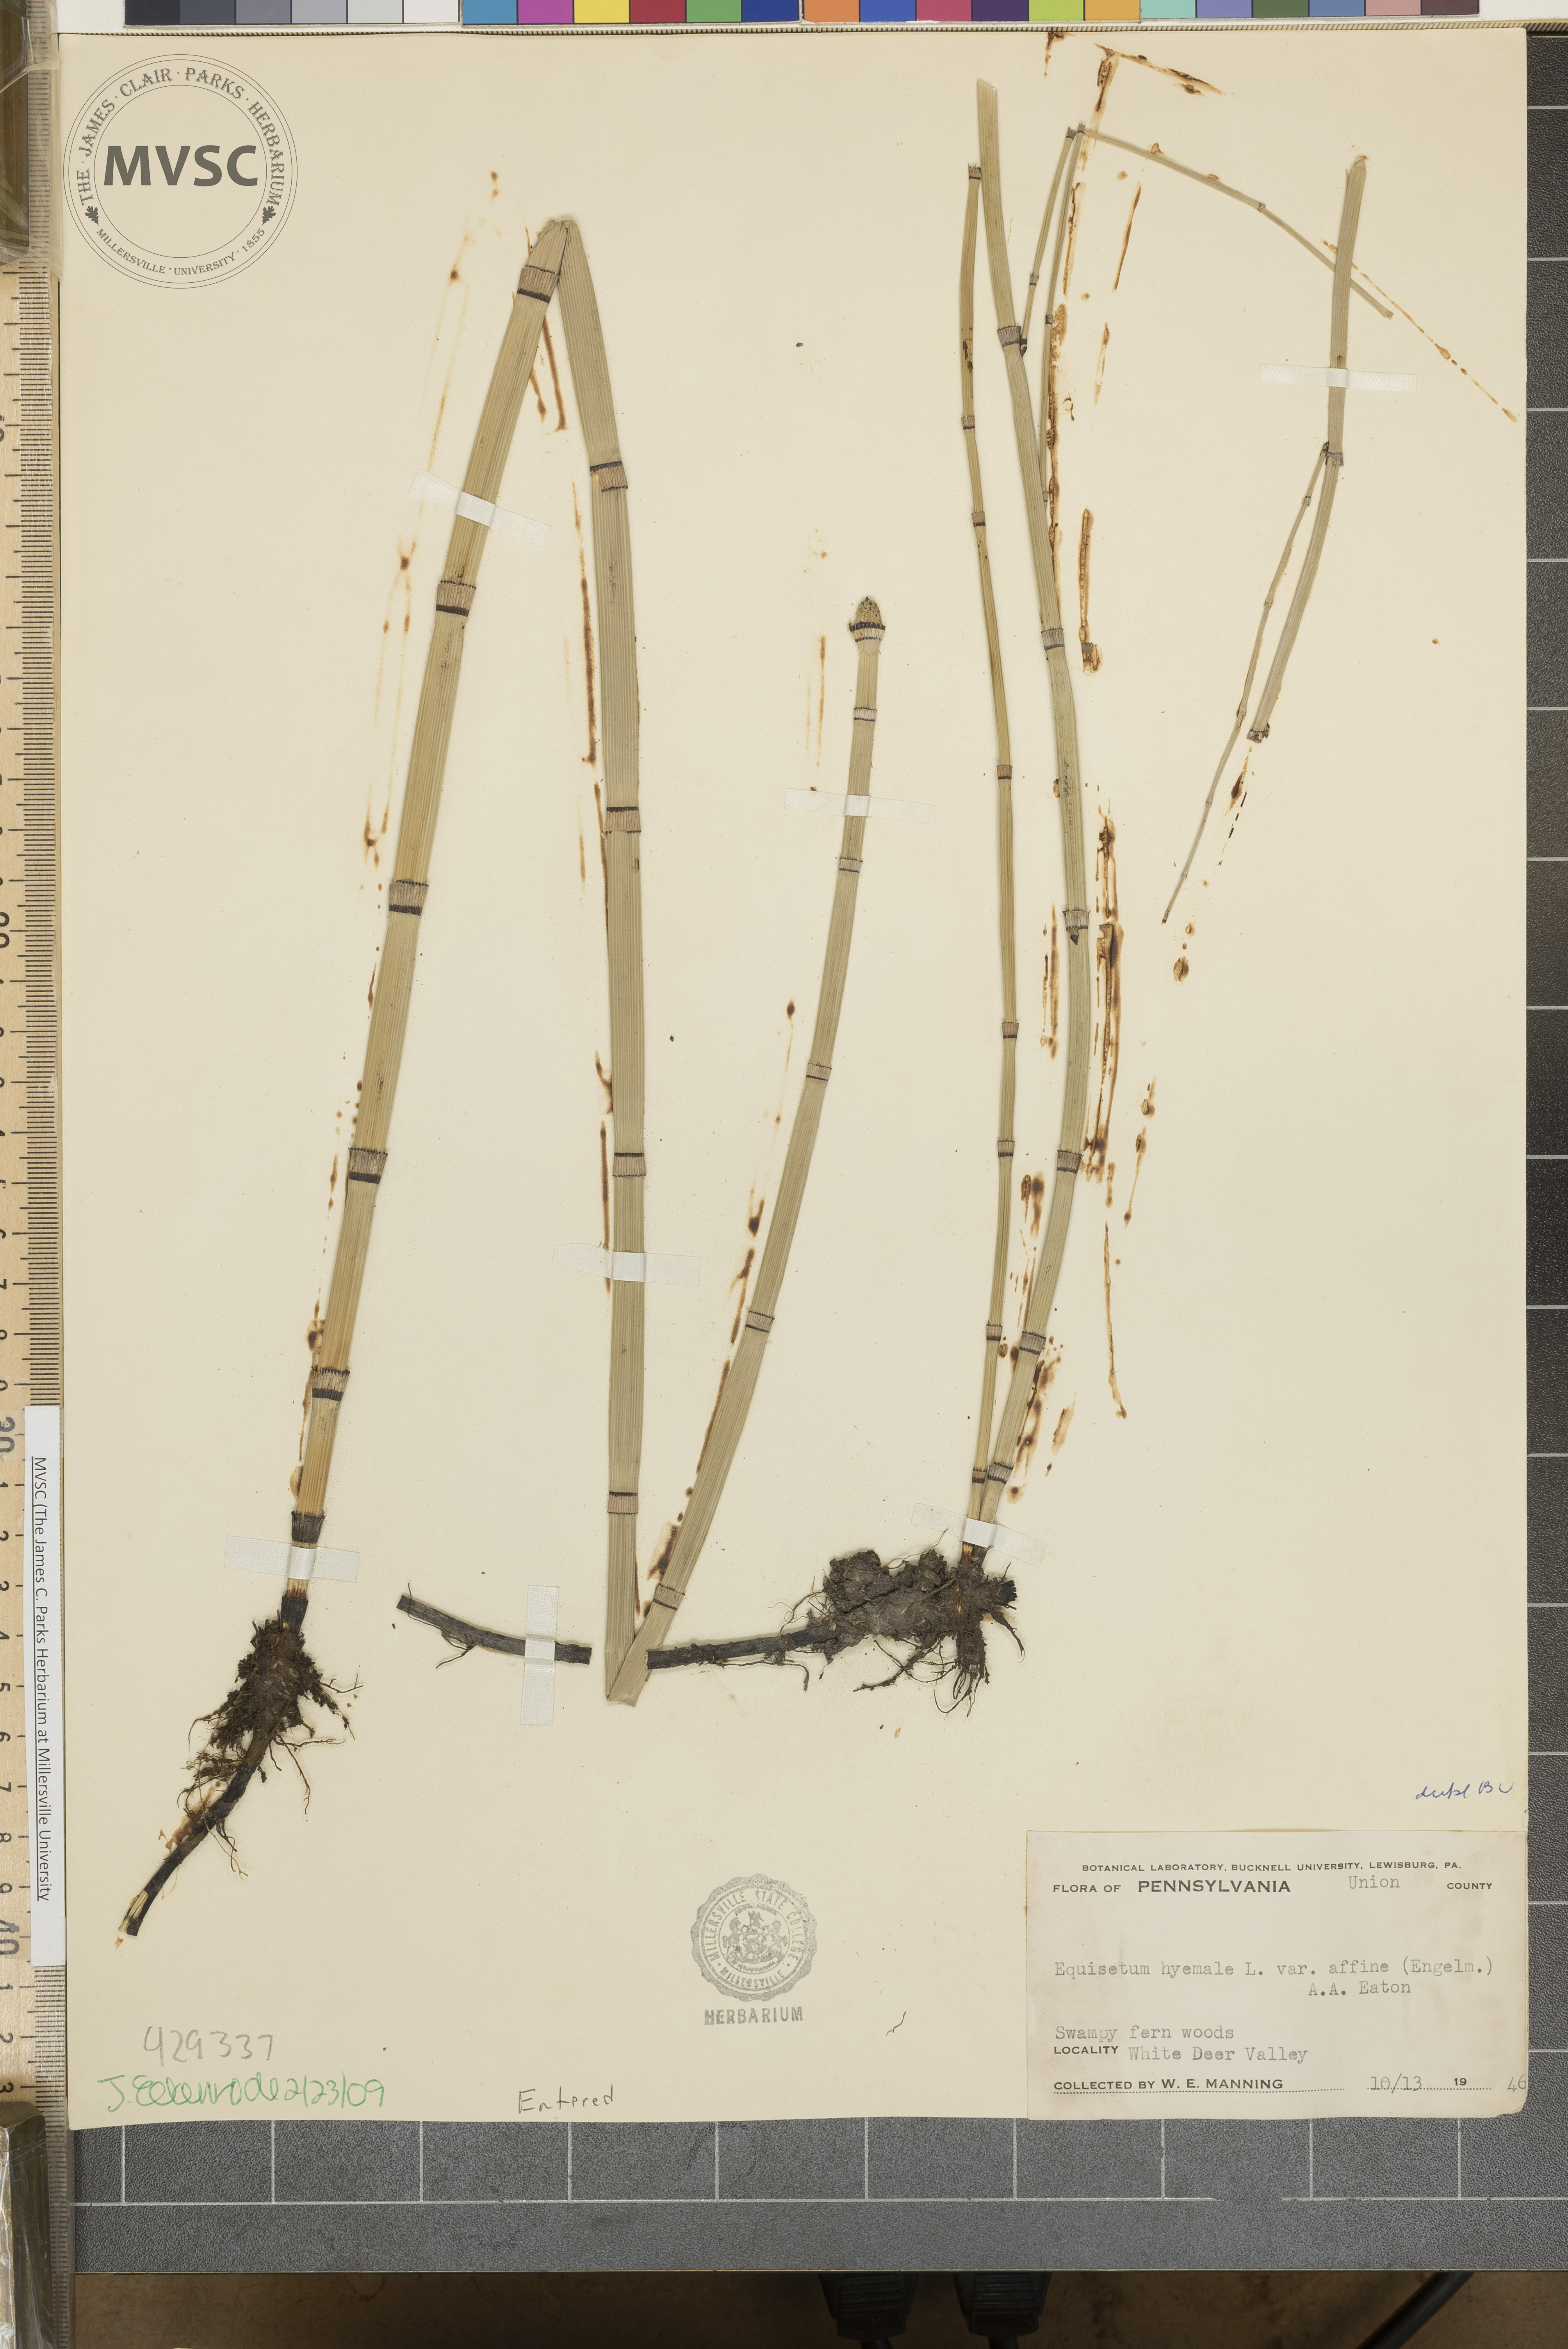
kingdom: Plantae
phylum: Tracheophyta
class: Polypodiopsida
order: Equisetales
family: Equisetaceae
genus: Equisetum
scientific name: Equisetum hyemale
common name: Rough horsetail
